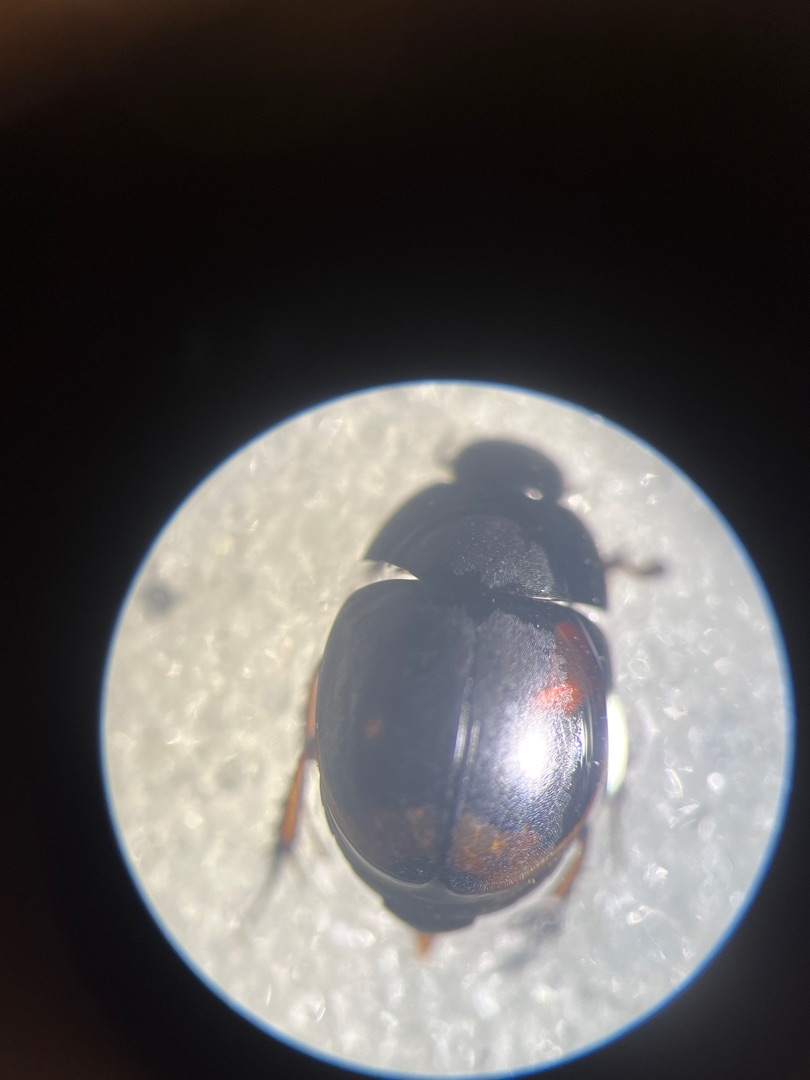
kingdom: Animalia
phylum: Arthropoda
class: Insecta
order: Coleoptera
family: Hydrophilidae
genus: Sphaeridium
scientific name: Sphaeridium bipustulatum
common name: Lille møgkær
